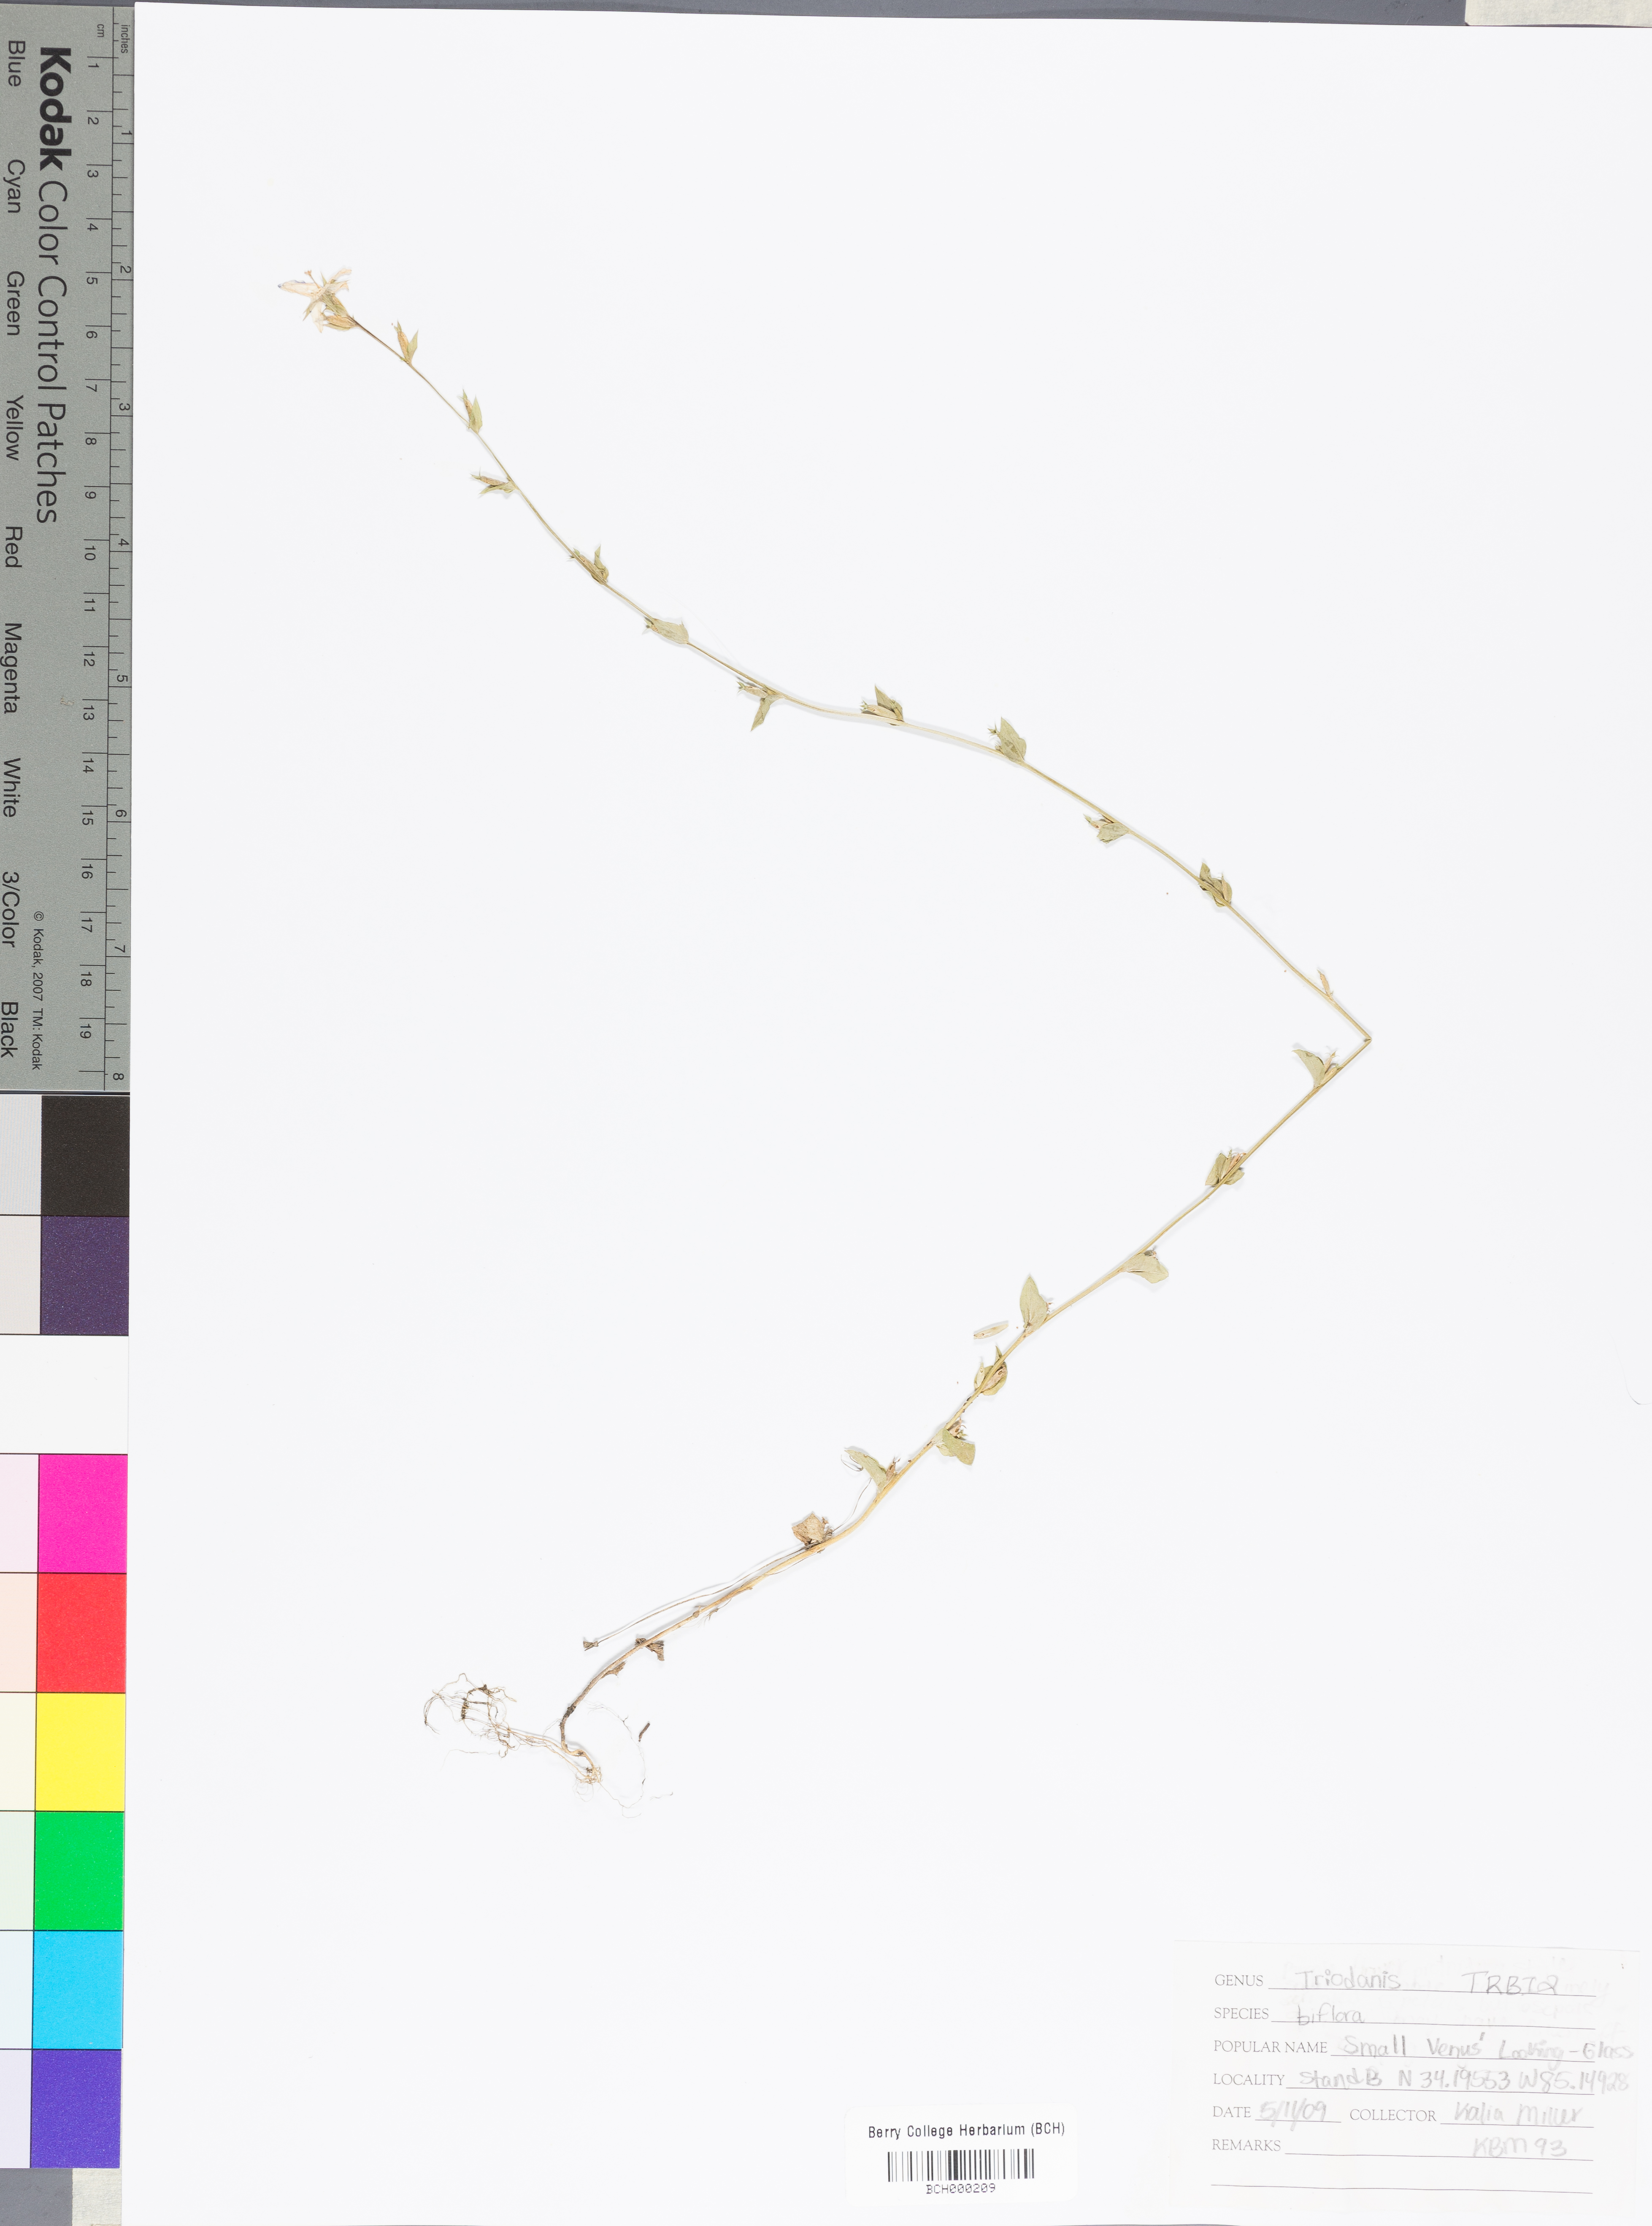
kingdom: Plantae
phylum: Tracheophyta
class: Magnoliopsida
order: Asterales
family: Campanulaceae
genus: Triodanis
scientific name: Triodanis perfoliata
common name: Clasping venus' looking-glass
